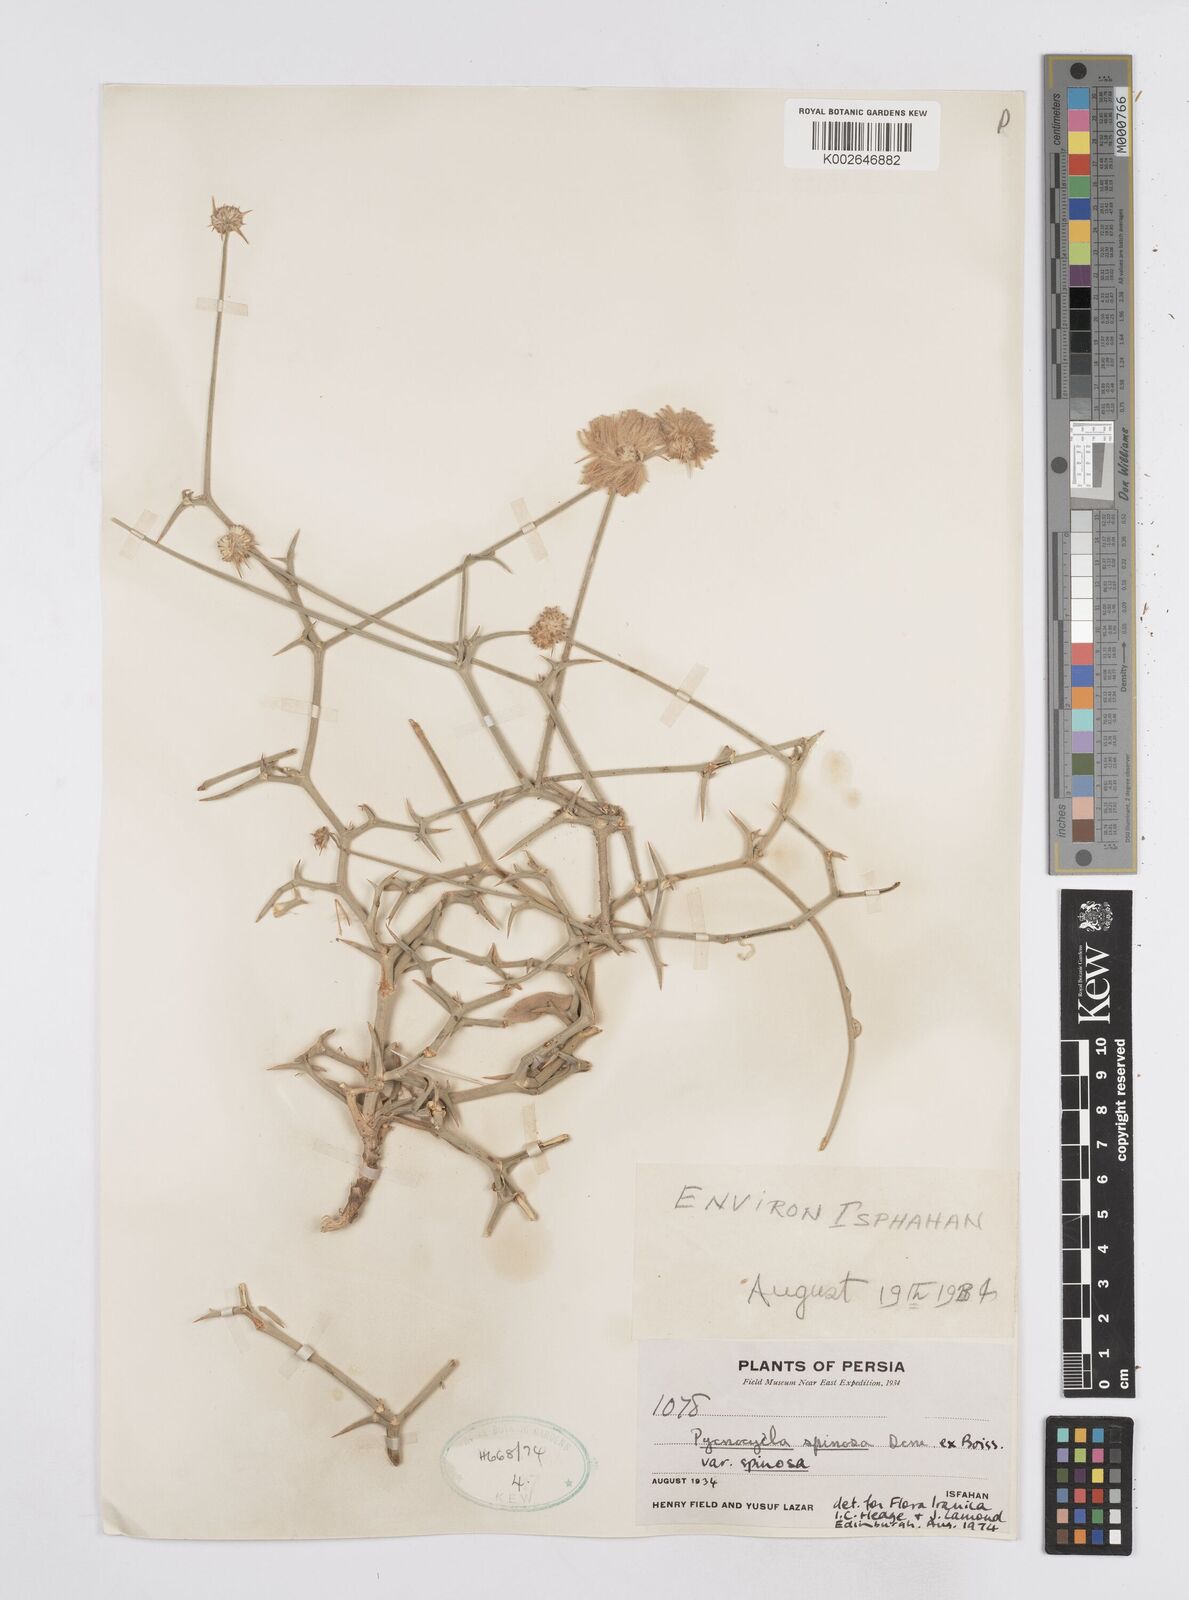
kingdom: Plantae
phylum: Tracheophyta
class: Magnoliopsida
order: Apiales
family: Apiaceae
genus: Pycnocycla
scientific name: Pycnocycla spinosa
